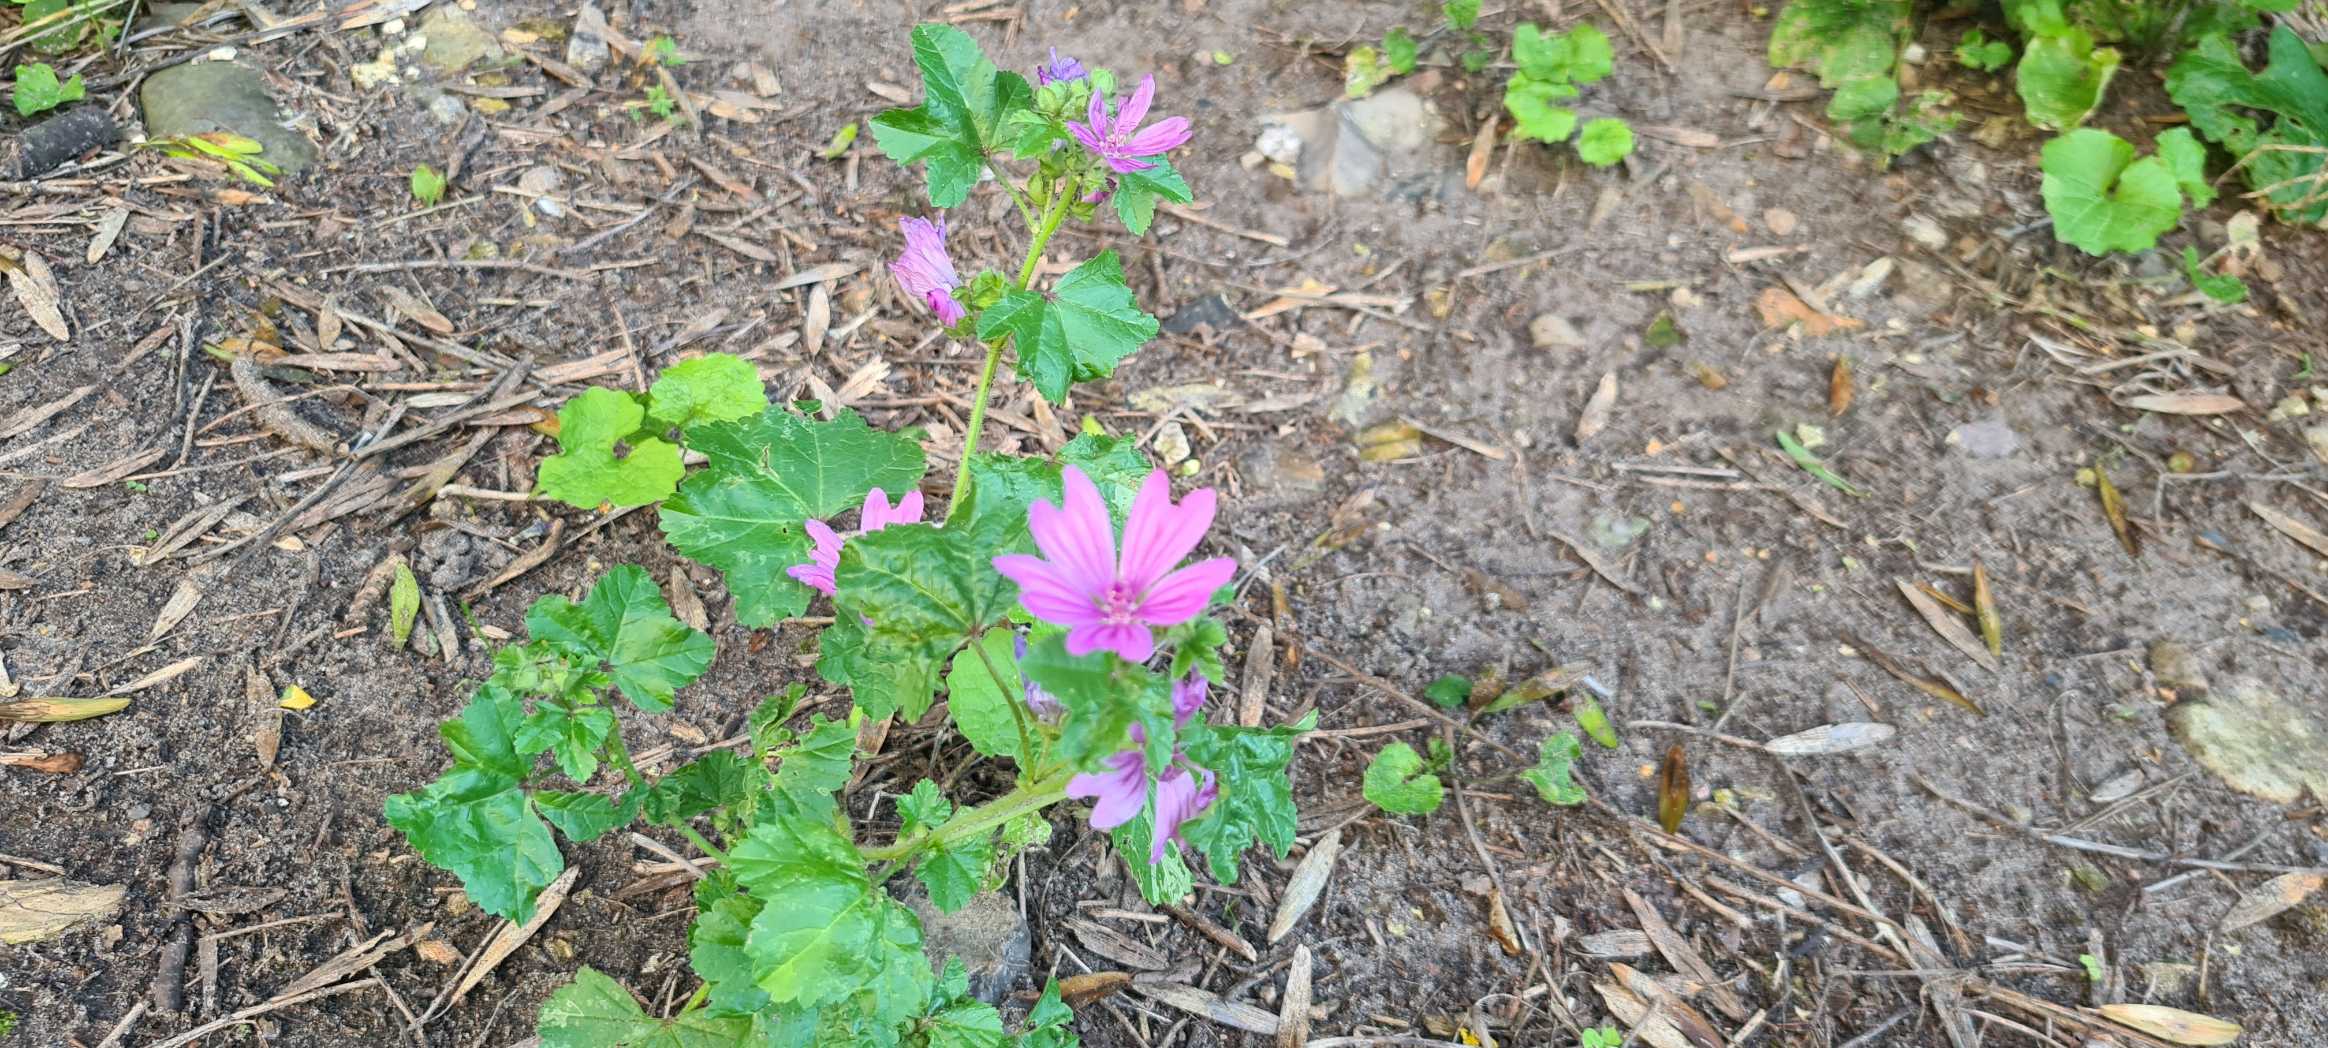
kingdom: Plantae
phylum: Tracheophyta
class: Magnoliopsida
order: Malvales
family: Malvaceae
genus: Malva
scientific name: Malva sylvestris
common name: Almindelig katost
